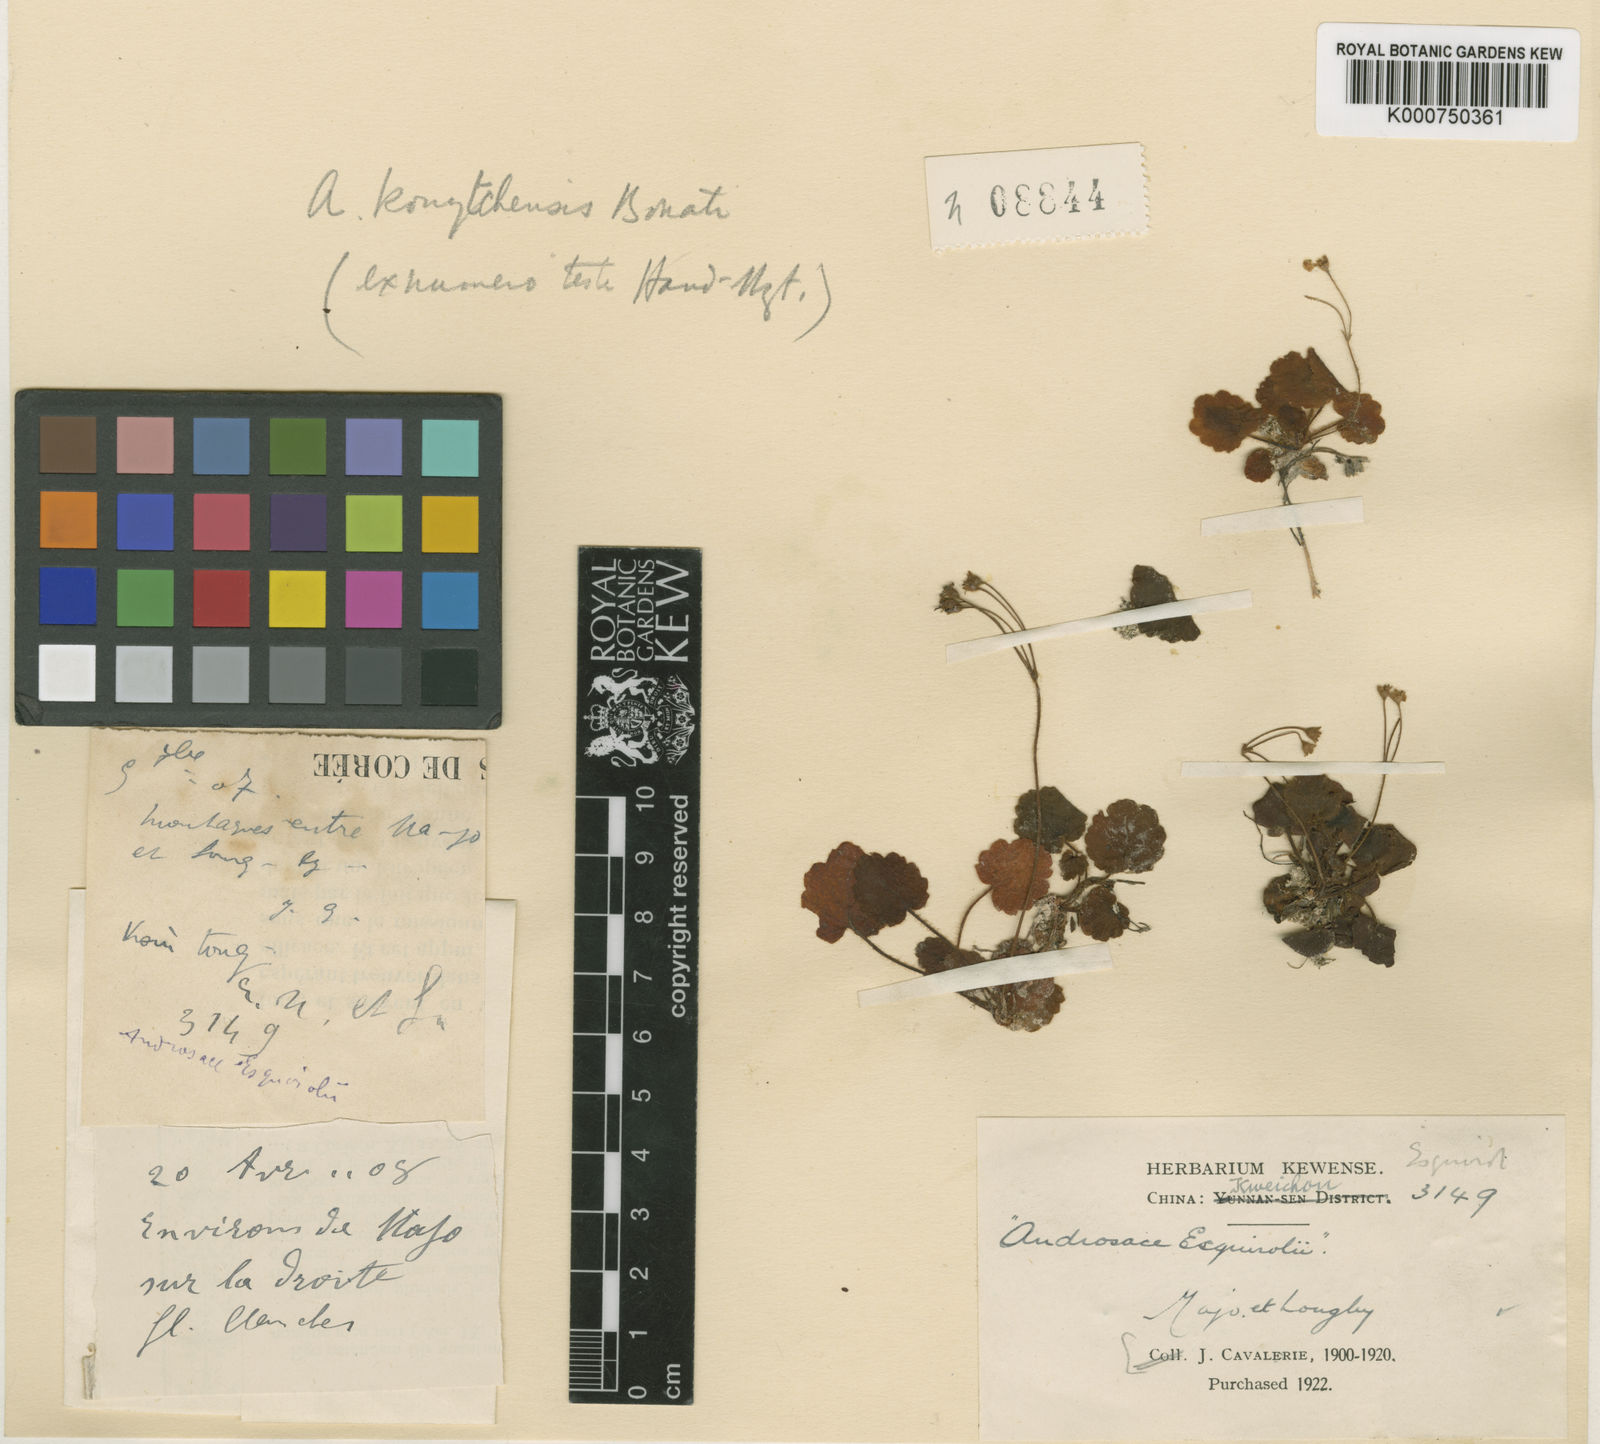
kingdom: Plantae
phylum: Tracheophyta
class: Magnoliopsida
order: Ericales
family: Primulaceae
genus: Androsace
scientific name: Androsace kouytchensis
